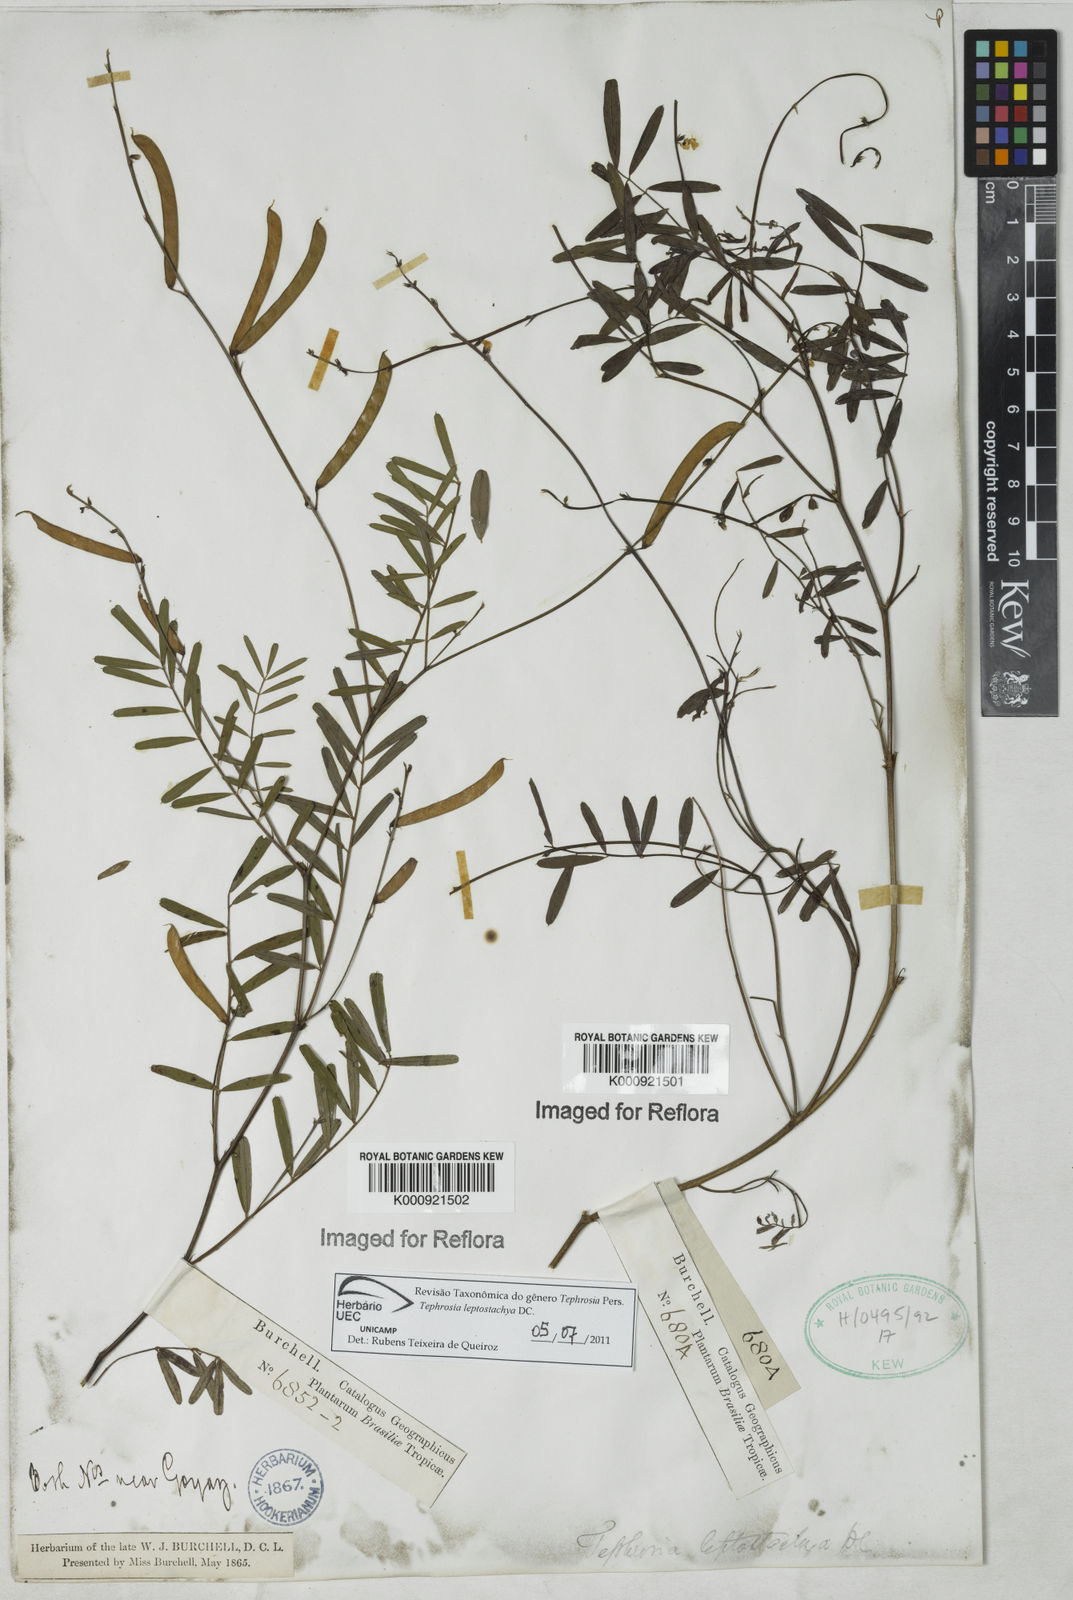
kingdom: Plantae
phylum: Tracheophyta
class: Magnoliopsida
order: Fabales
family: Fabaceae
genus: Tephrosia
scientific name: Tephrosia purpurea
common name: Fishpoison
